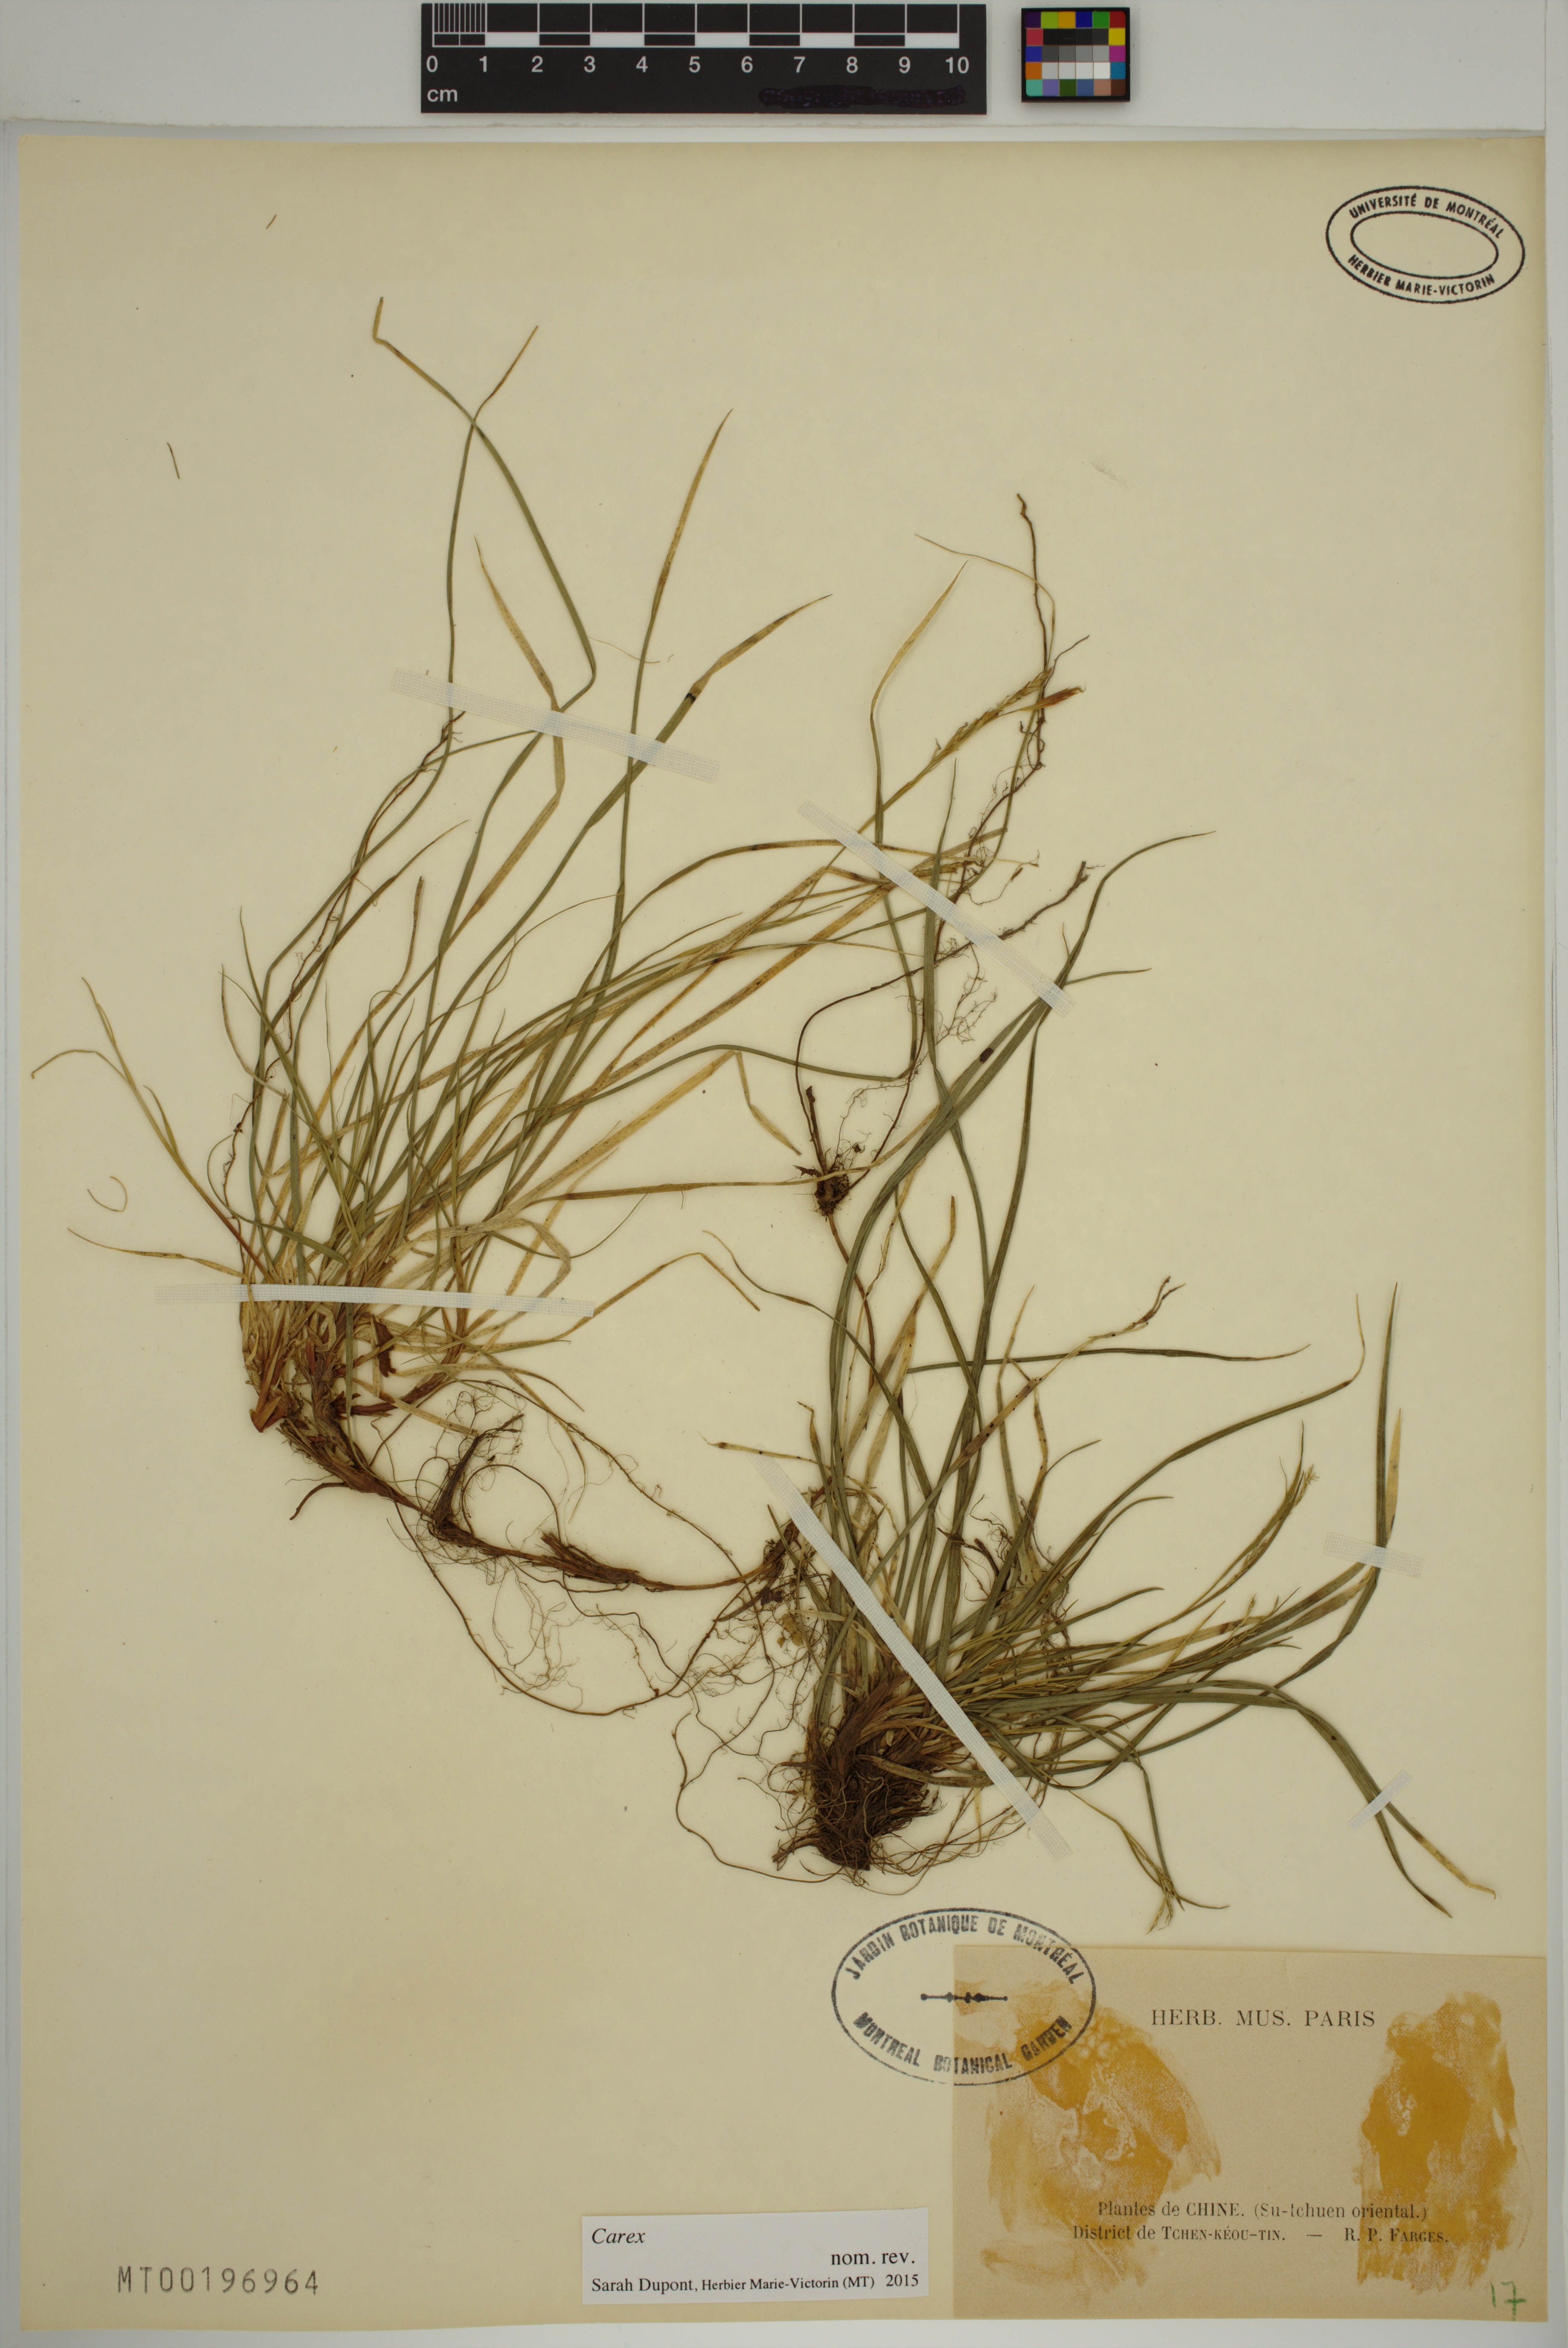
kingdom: Plantae
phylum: Tracheophyta
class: Liliopsida
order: Poales
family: Cyperaceae
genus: Carex
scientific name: Carex
